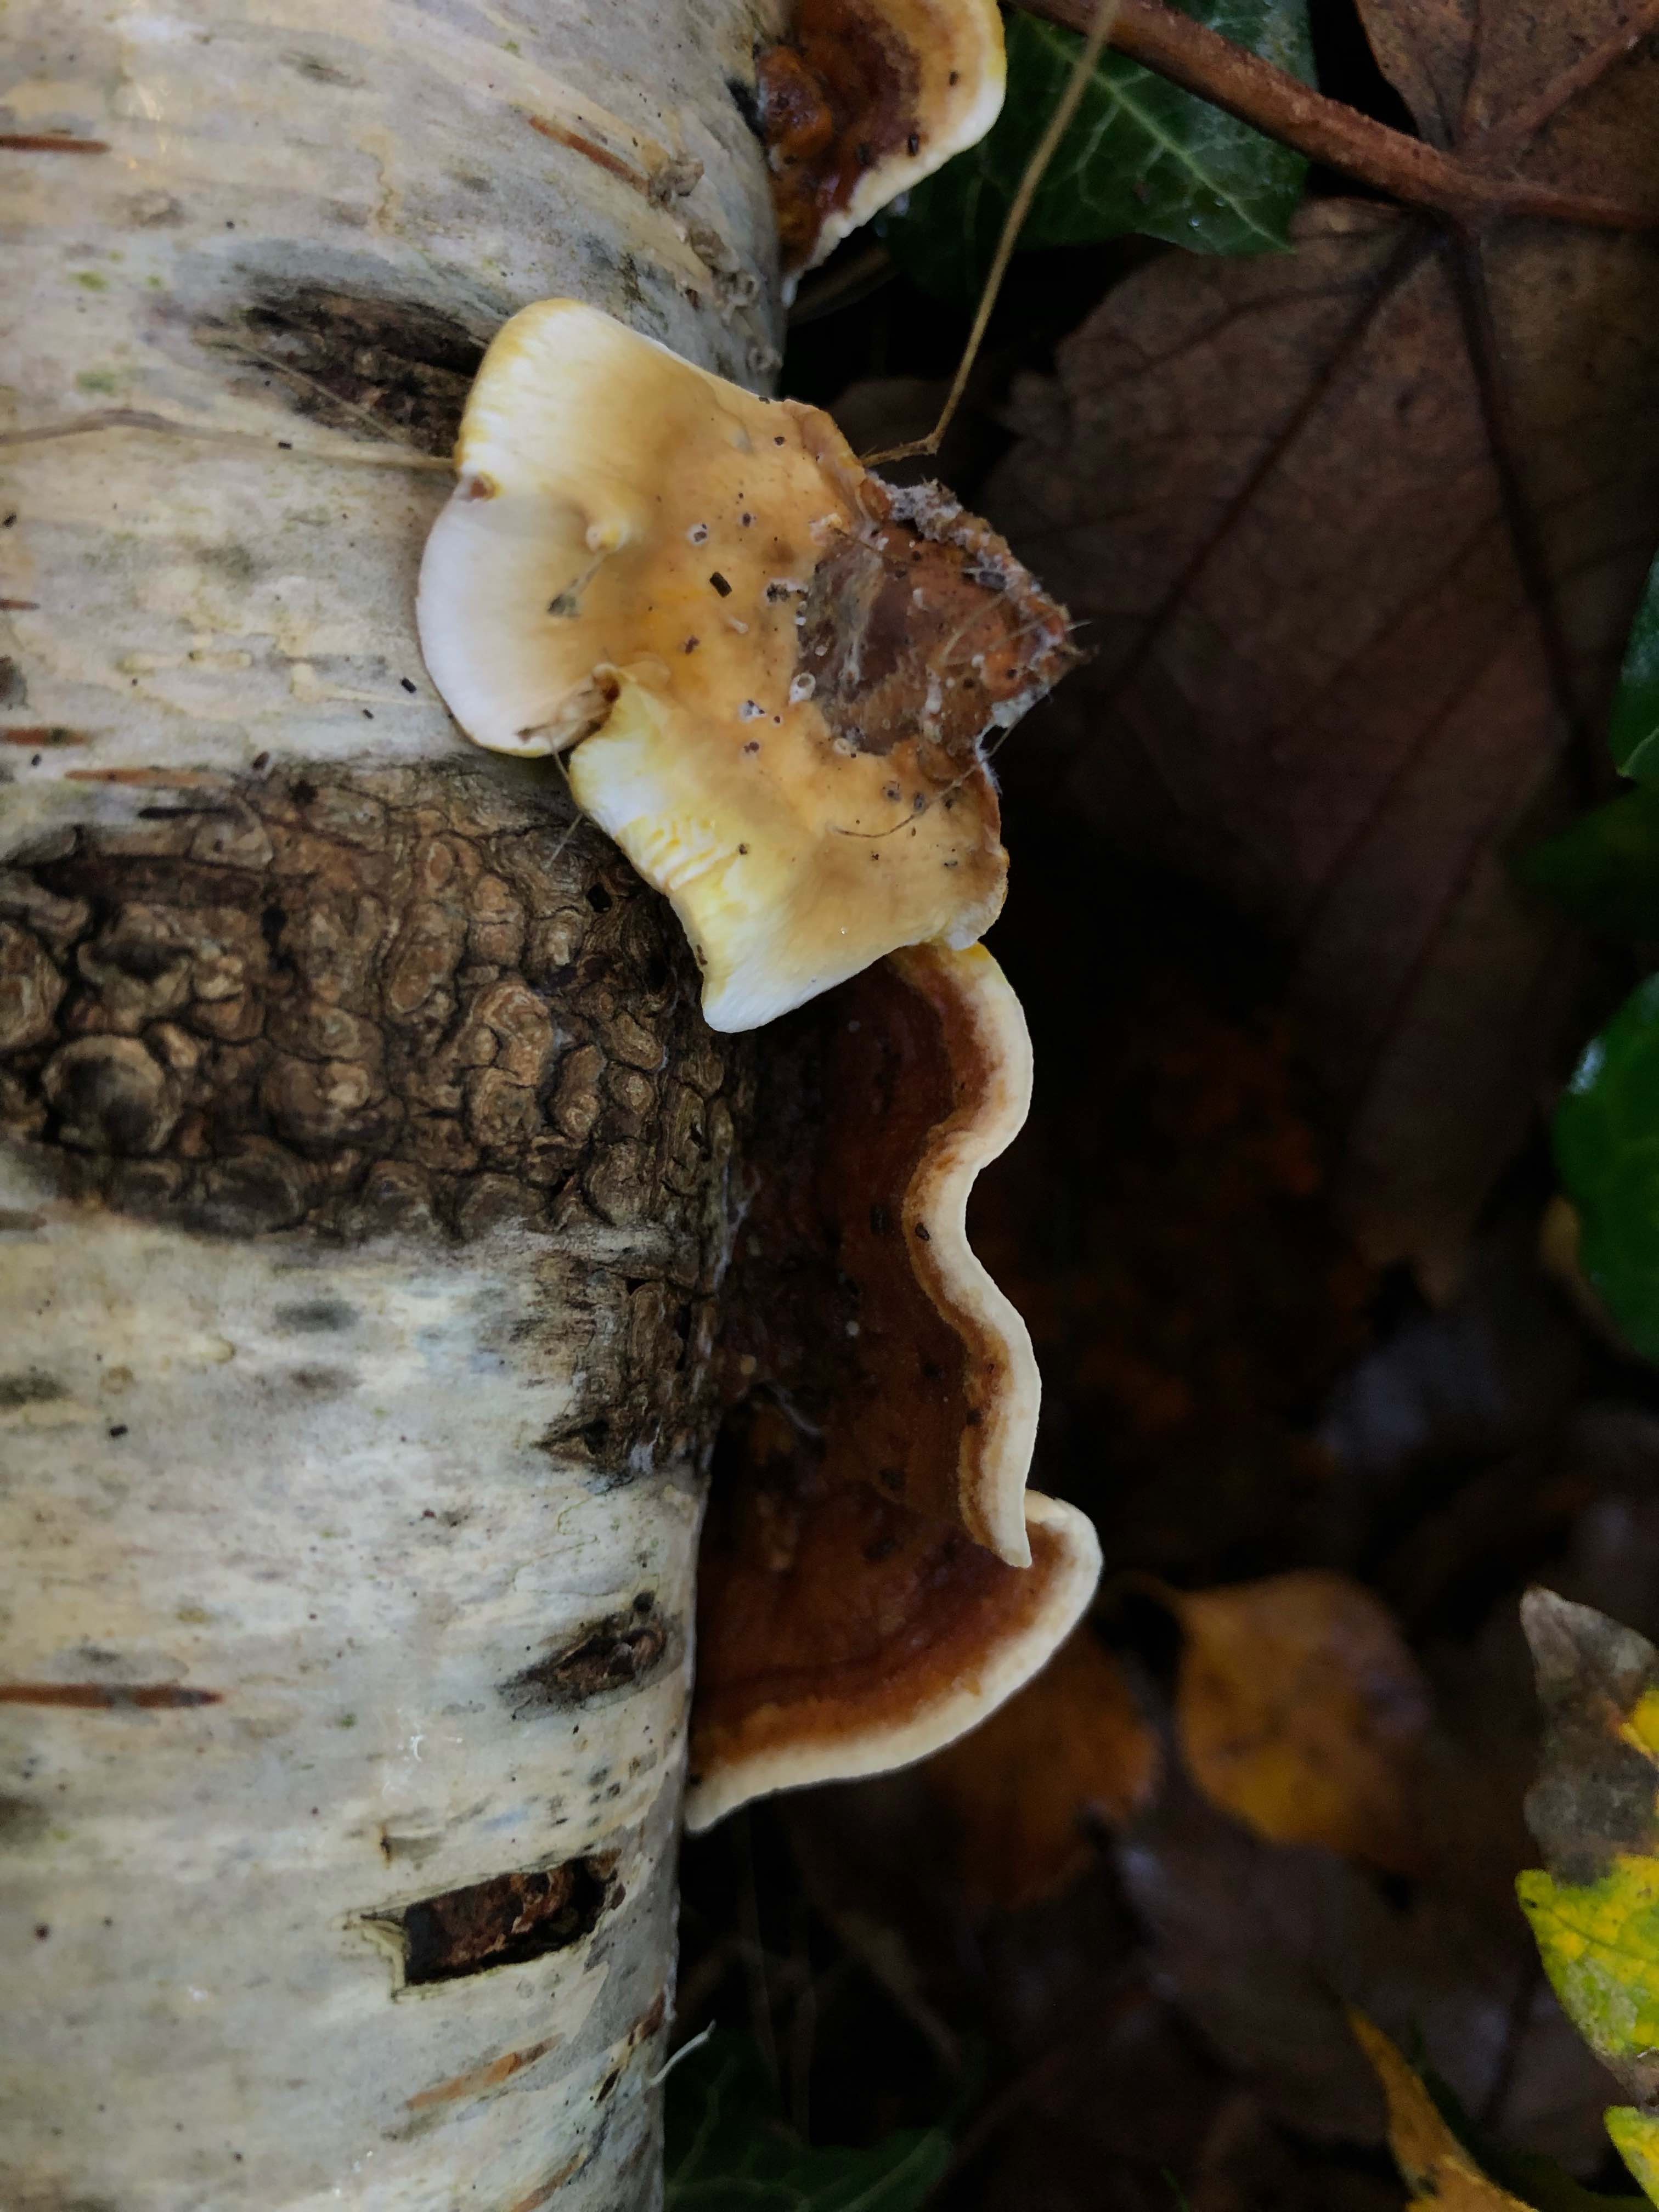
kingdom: Fungi
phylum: Basidiomycota
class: Agaricomycetes
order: Russulales
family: Stereaceae
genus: Stereum
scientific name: Stereum subtomentosum
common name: smuk lædersvamp
